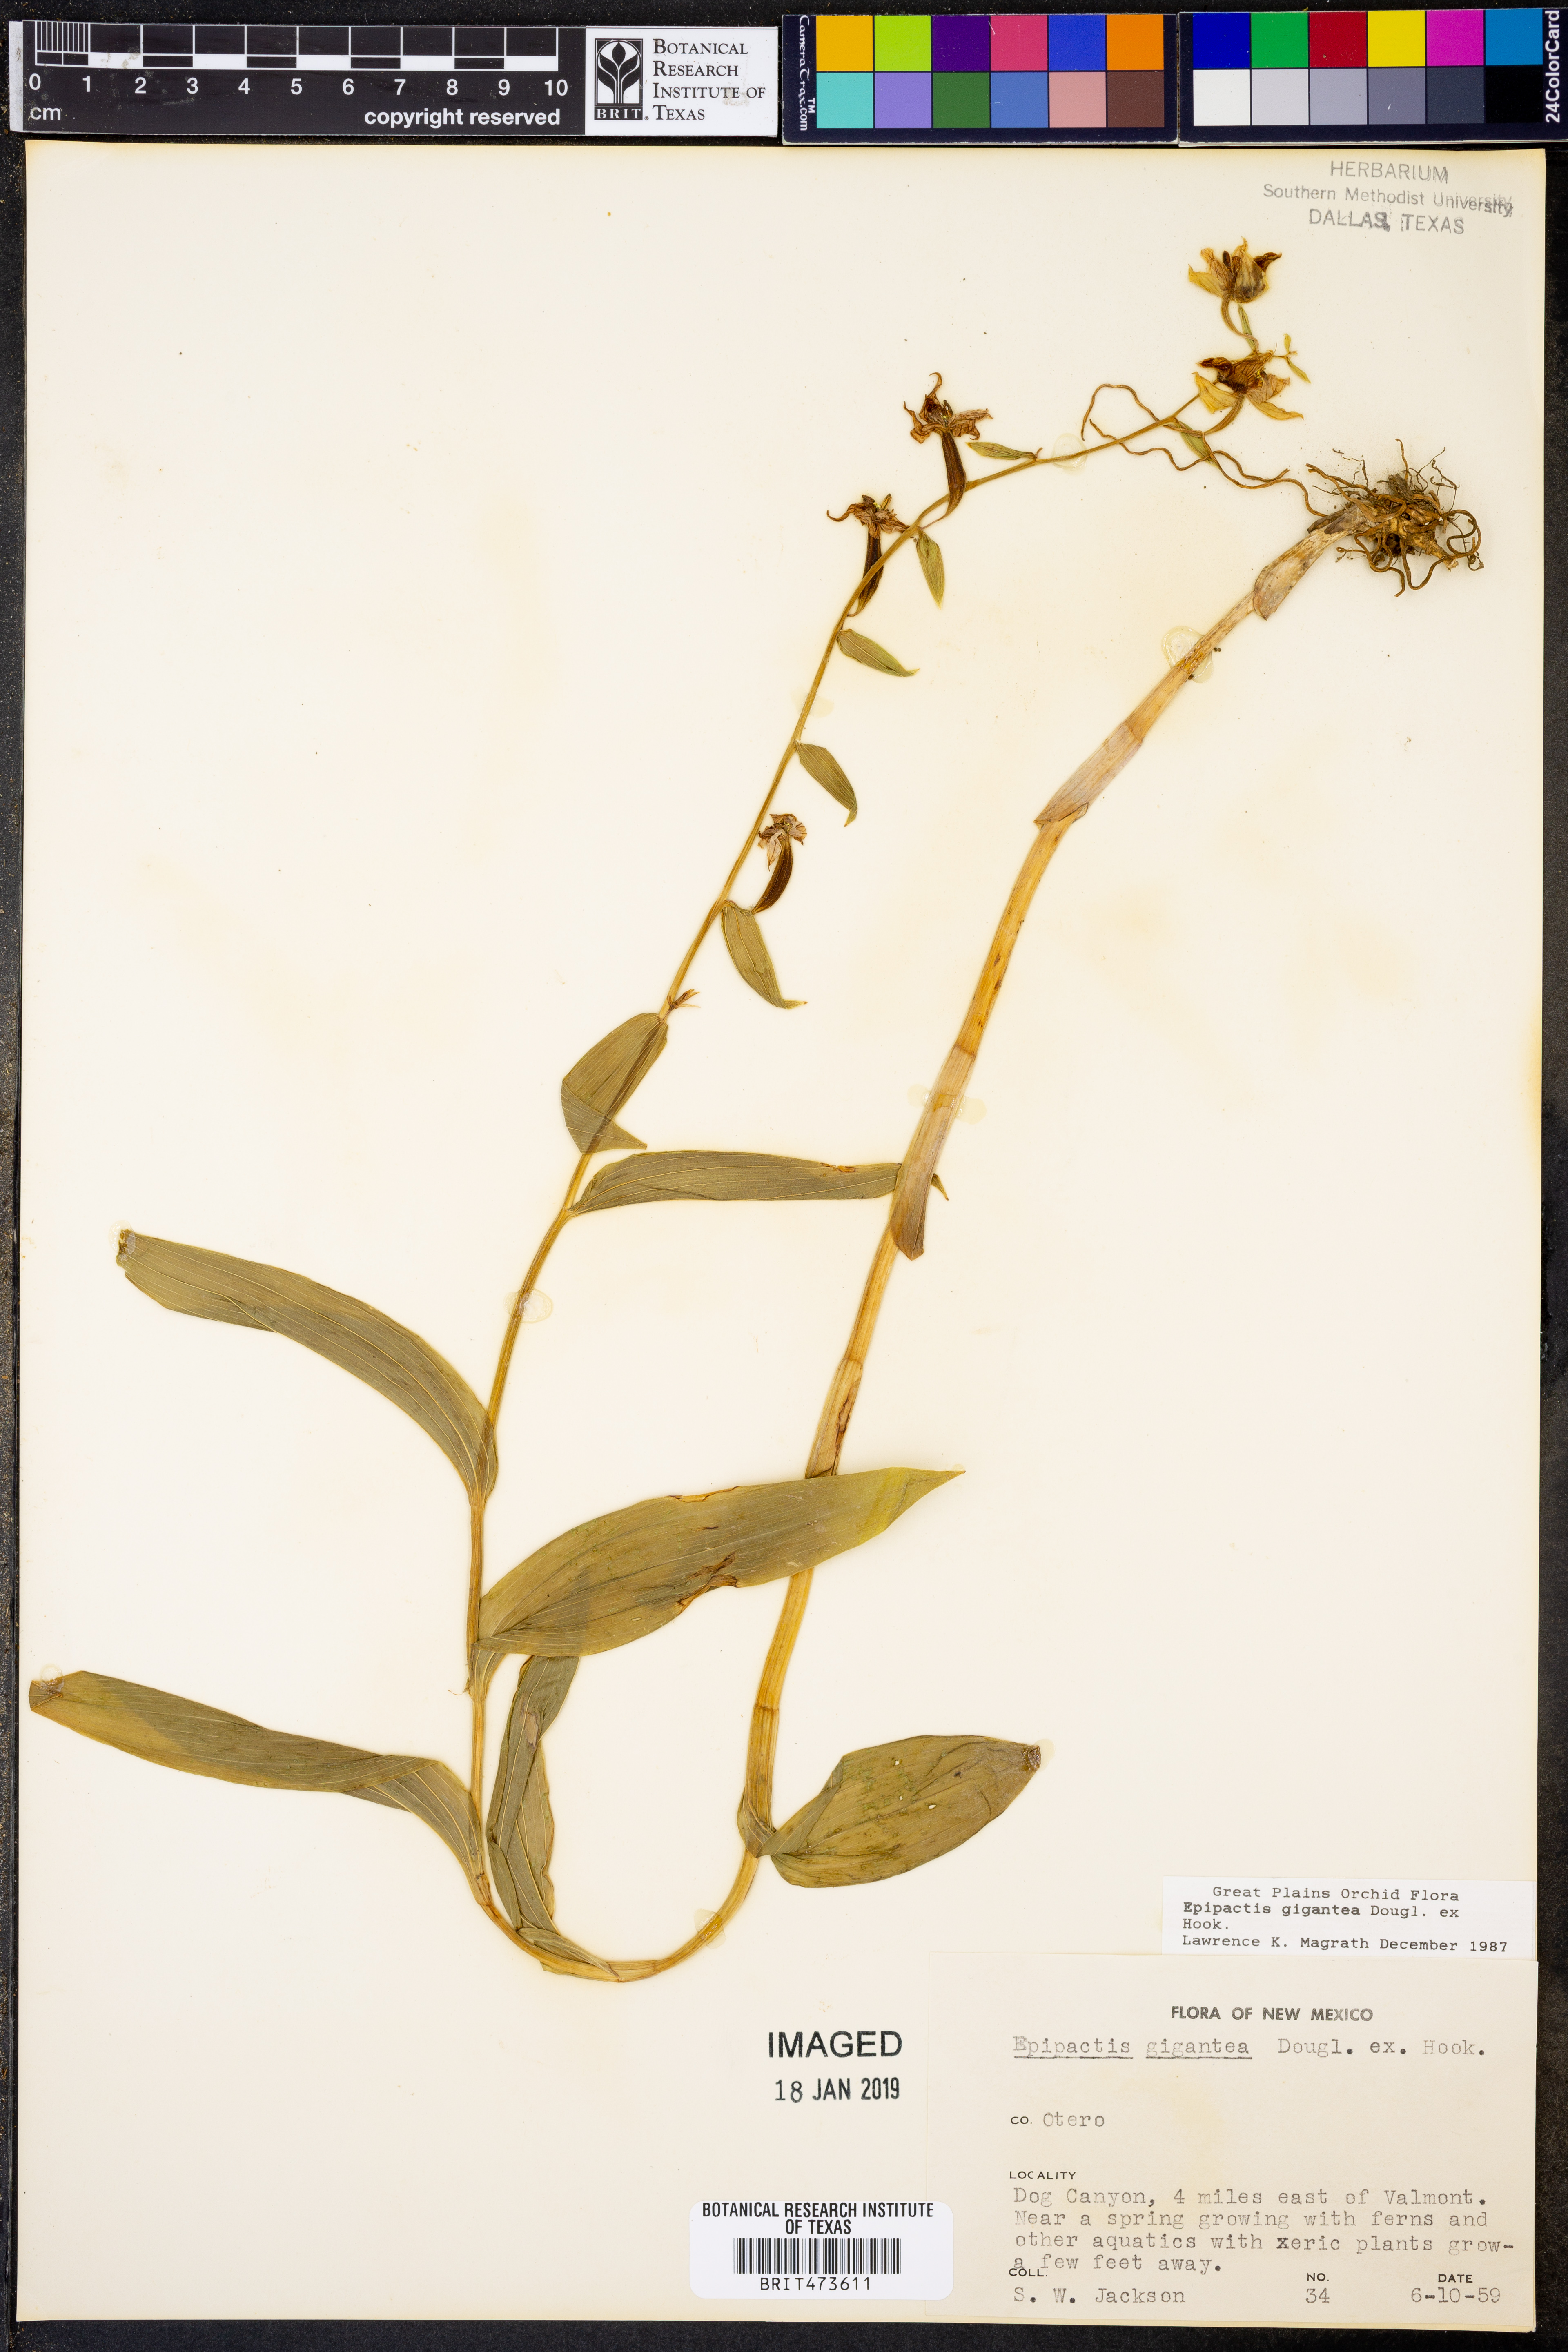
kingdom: Plantae
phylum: Tracheophyta
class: Liliopsida
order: Asparagales
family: Orchidaceae
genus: Epipactis
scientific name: Epipactis gigantea
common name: Chatterbox
